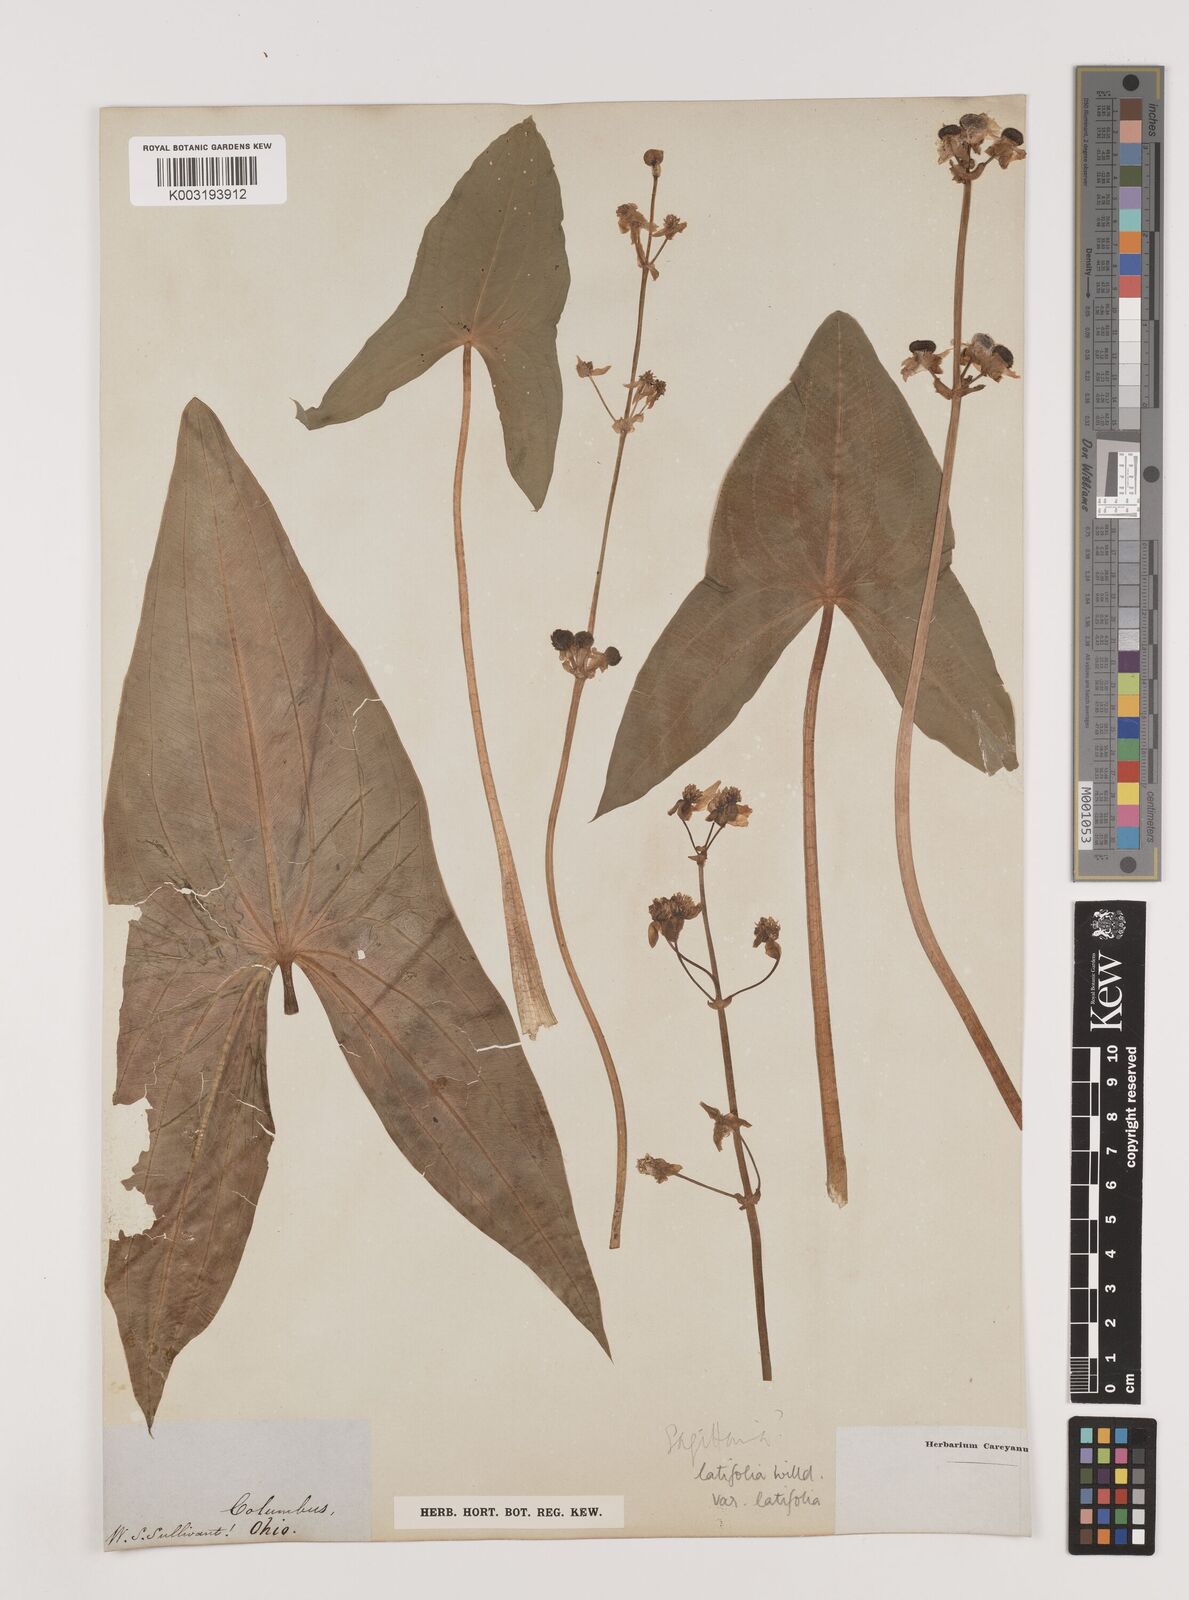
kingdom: Plantae
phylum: Tracheophyta
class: Liliopsida
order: Alismatales
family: Alismataceae
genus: Sagittaria
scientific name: Sagittaria latifolia
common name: Duck-potato
